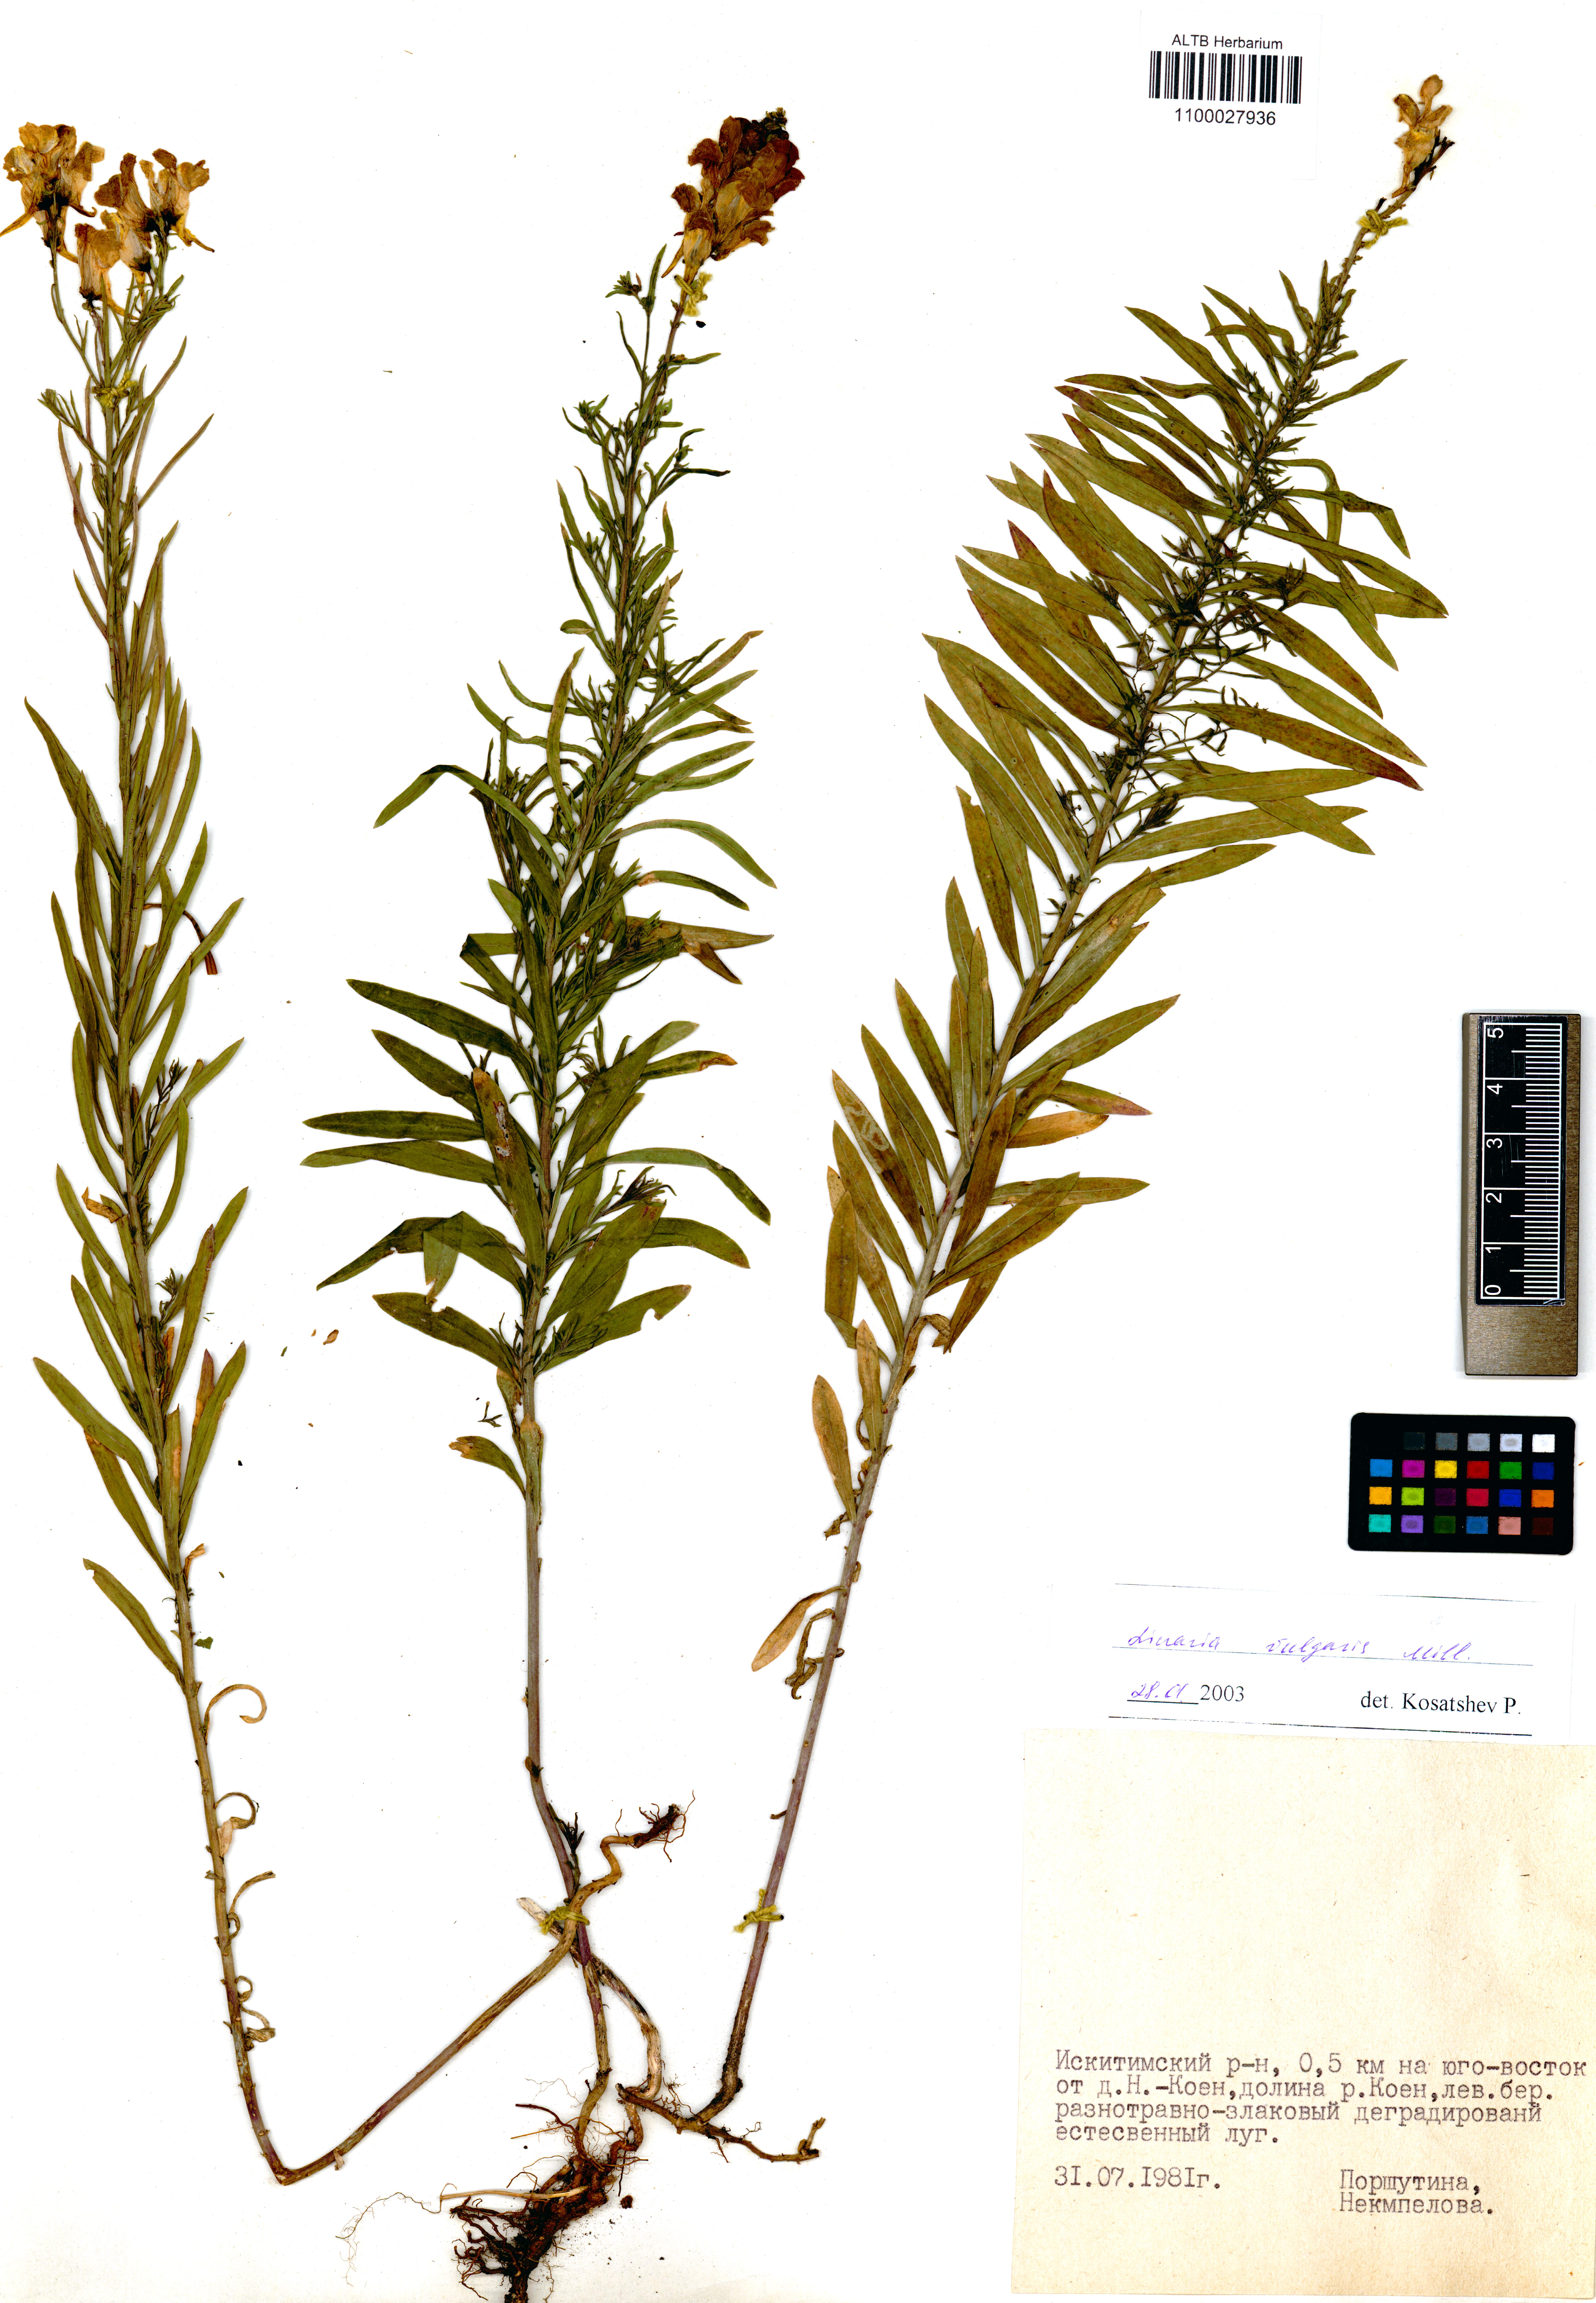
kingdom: Plantae
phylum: Tracheophyta
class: Magnoliopsida
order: Lamiales
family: Plantaginaceae
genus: Linaria
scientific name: Linaria vulgaris
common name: Butter and eggs
